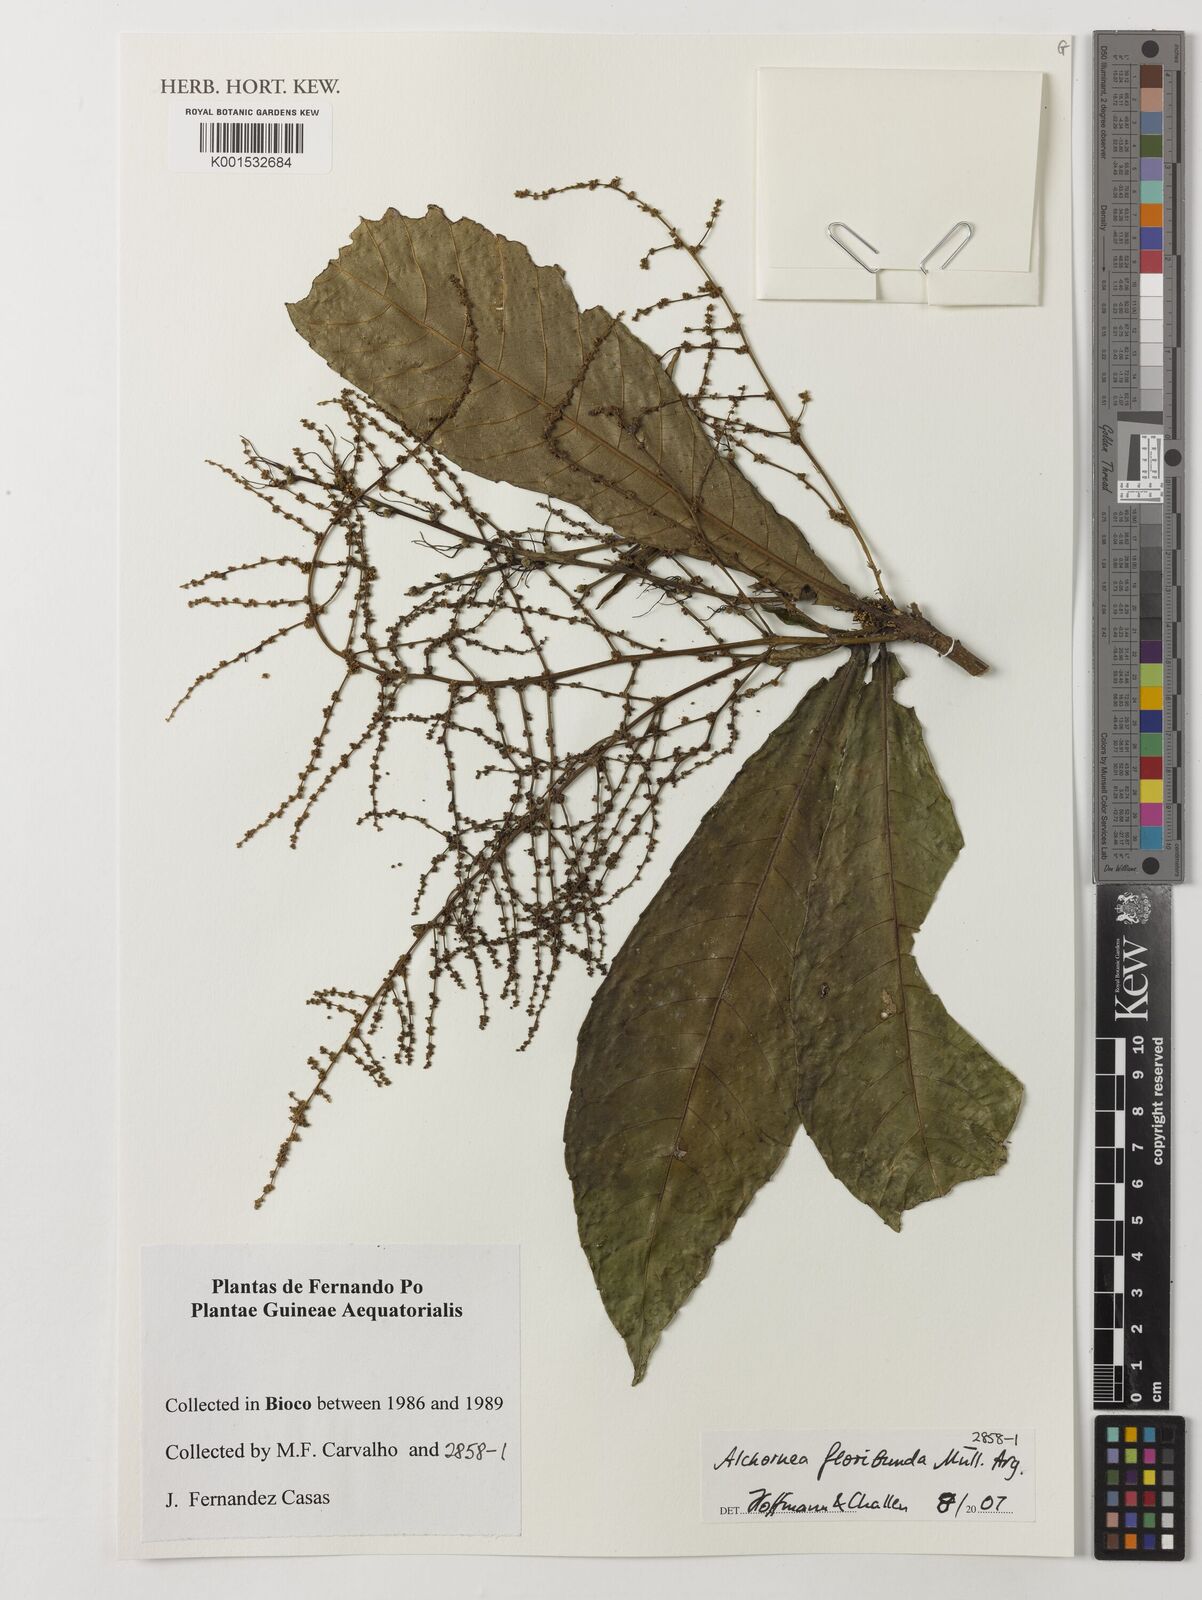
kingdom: Plantae
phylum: Tracheophyta
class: Magnoliopsida
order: Malpighiales
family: Euphorbiaceae
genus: Alchornea
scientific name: Alchornea floribunda
